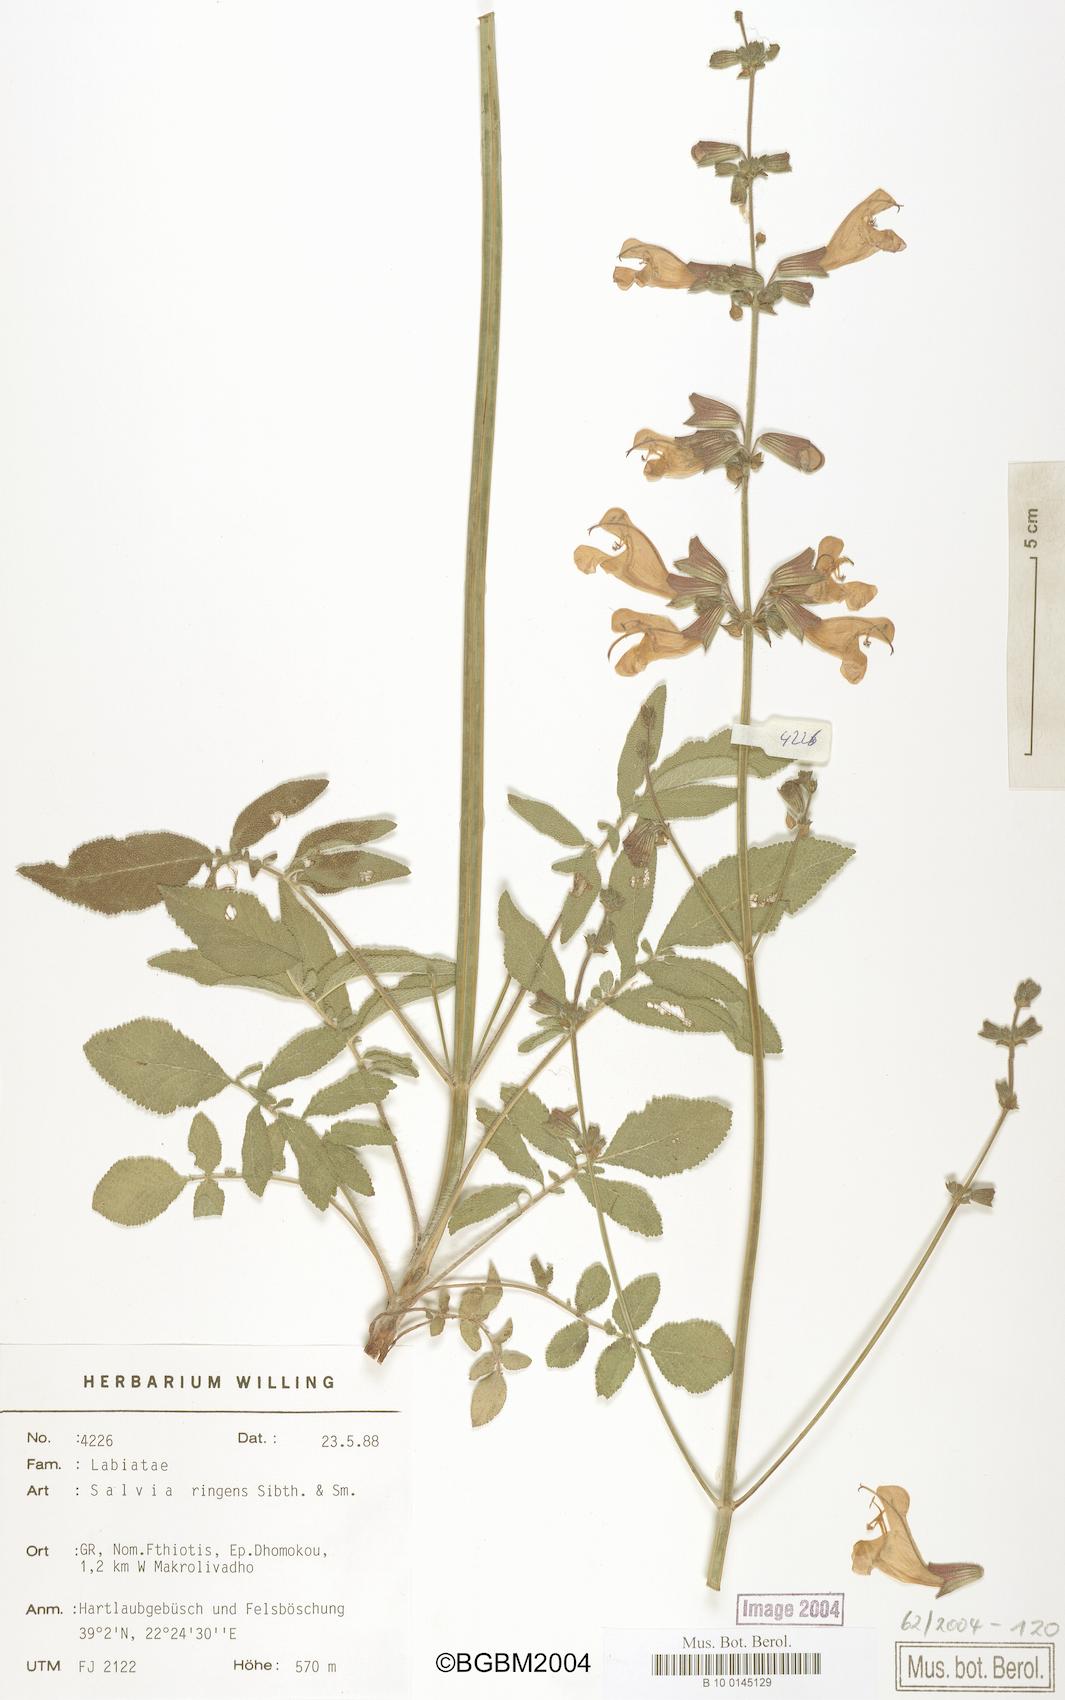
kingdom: Plantae
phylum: Tracheophyta
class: Magnoliopsida
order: Lamiales
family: Lamiaceae
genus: Salvia
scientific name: Salvia ringens
